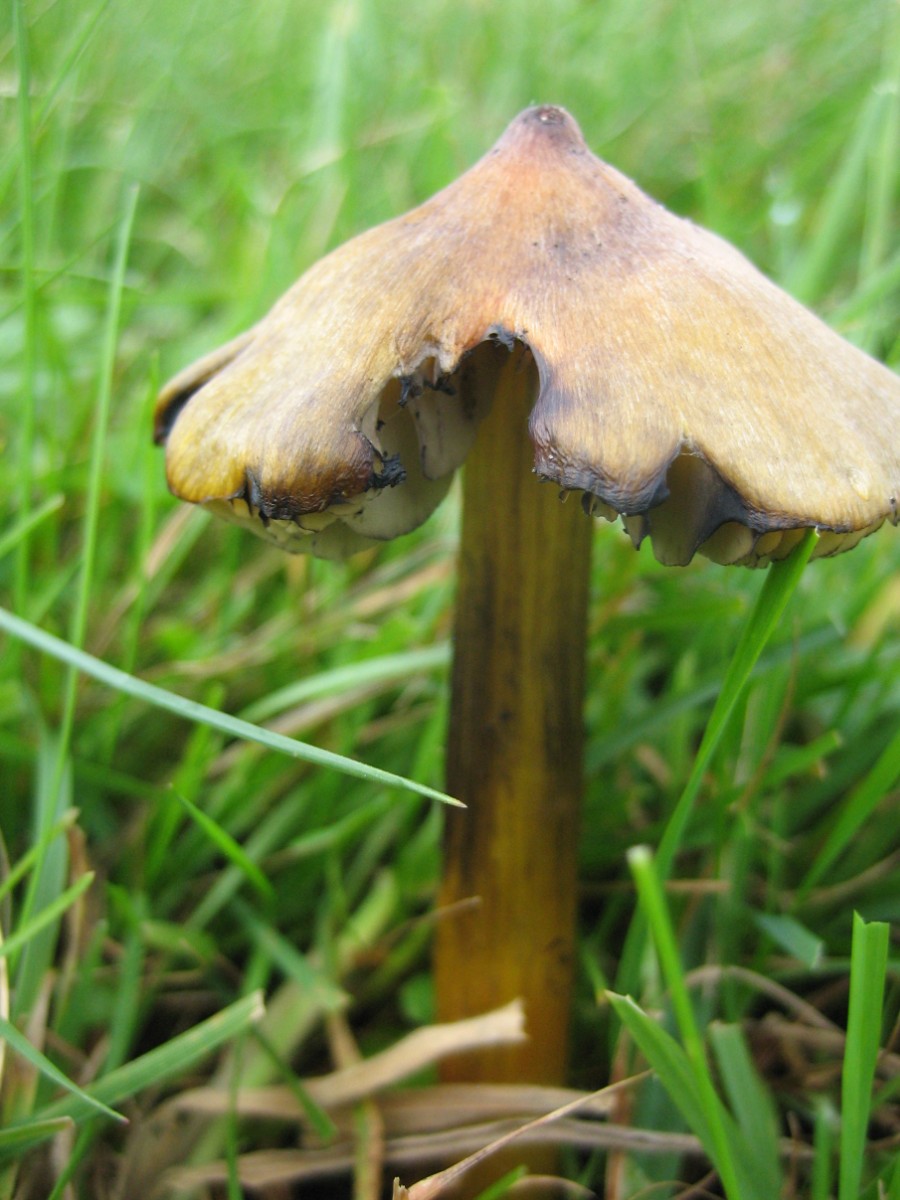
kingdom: Fungi
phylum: Basidiomycota
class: Agaricomycetes
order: Agaricales
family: Hygrophoraceae
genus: Hygrocybe
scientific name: Hygrocybe conica
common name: kegle-vokshat
